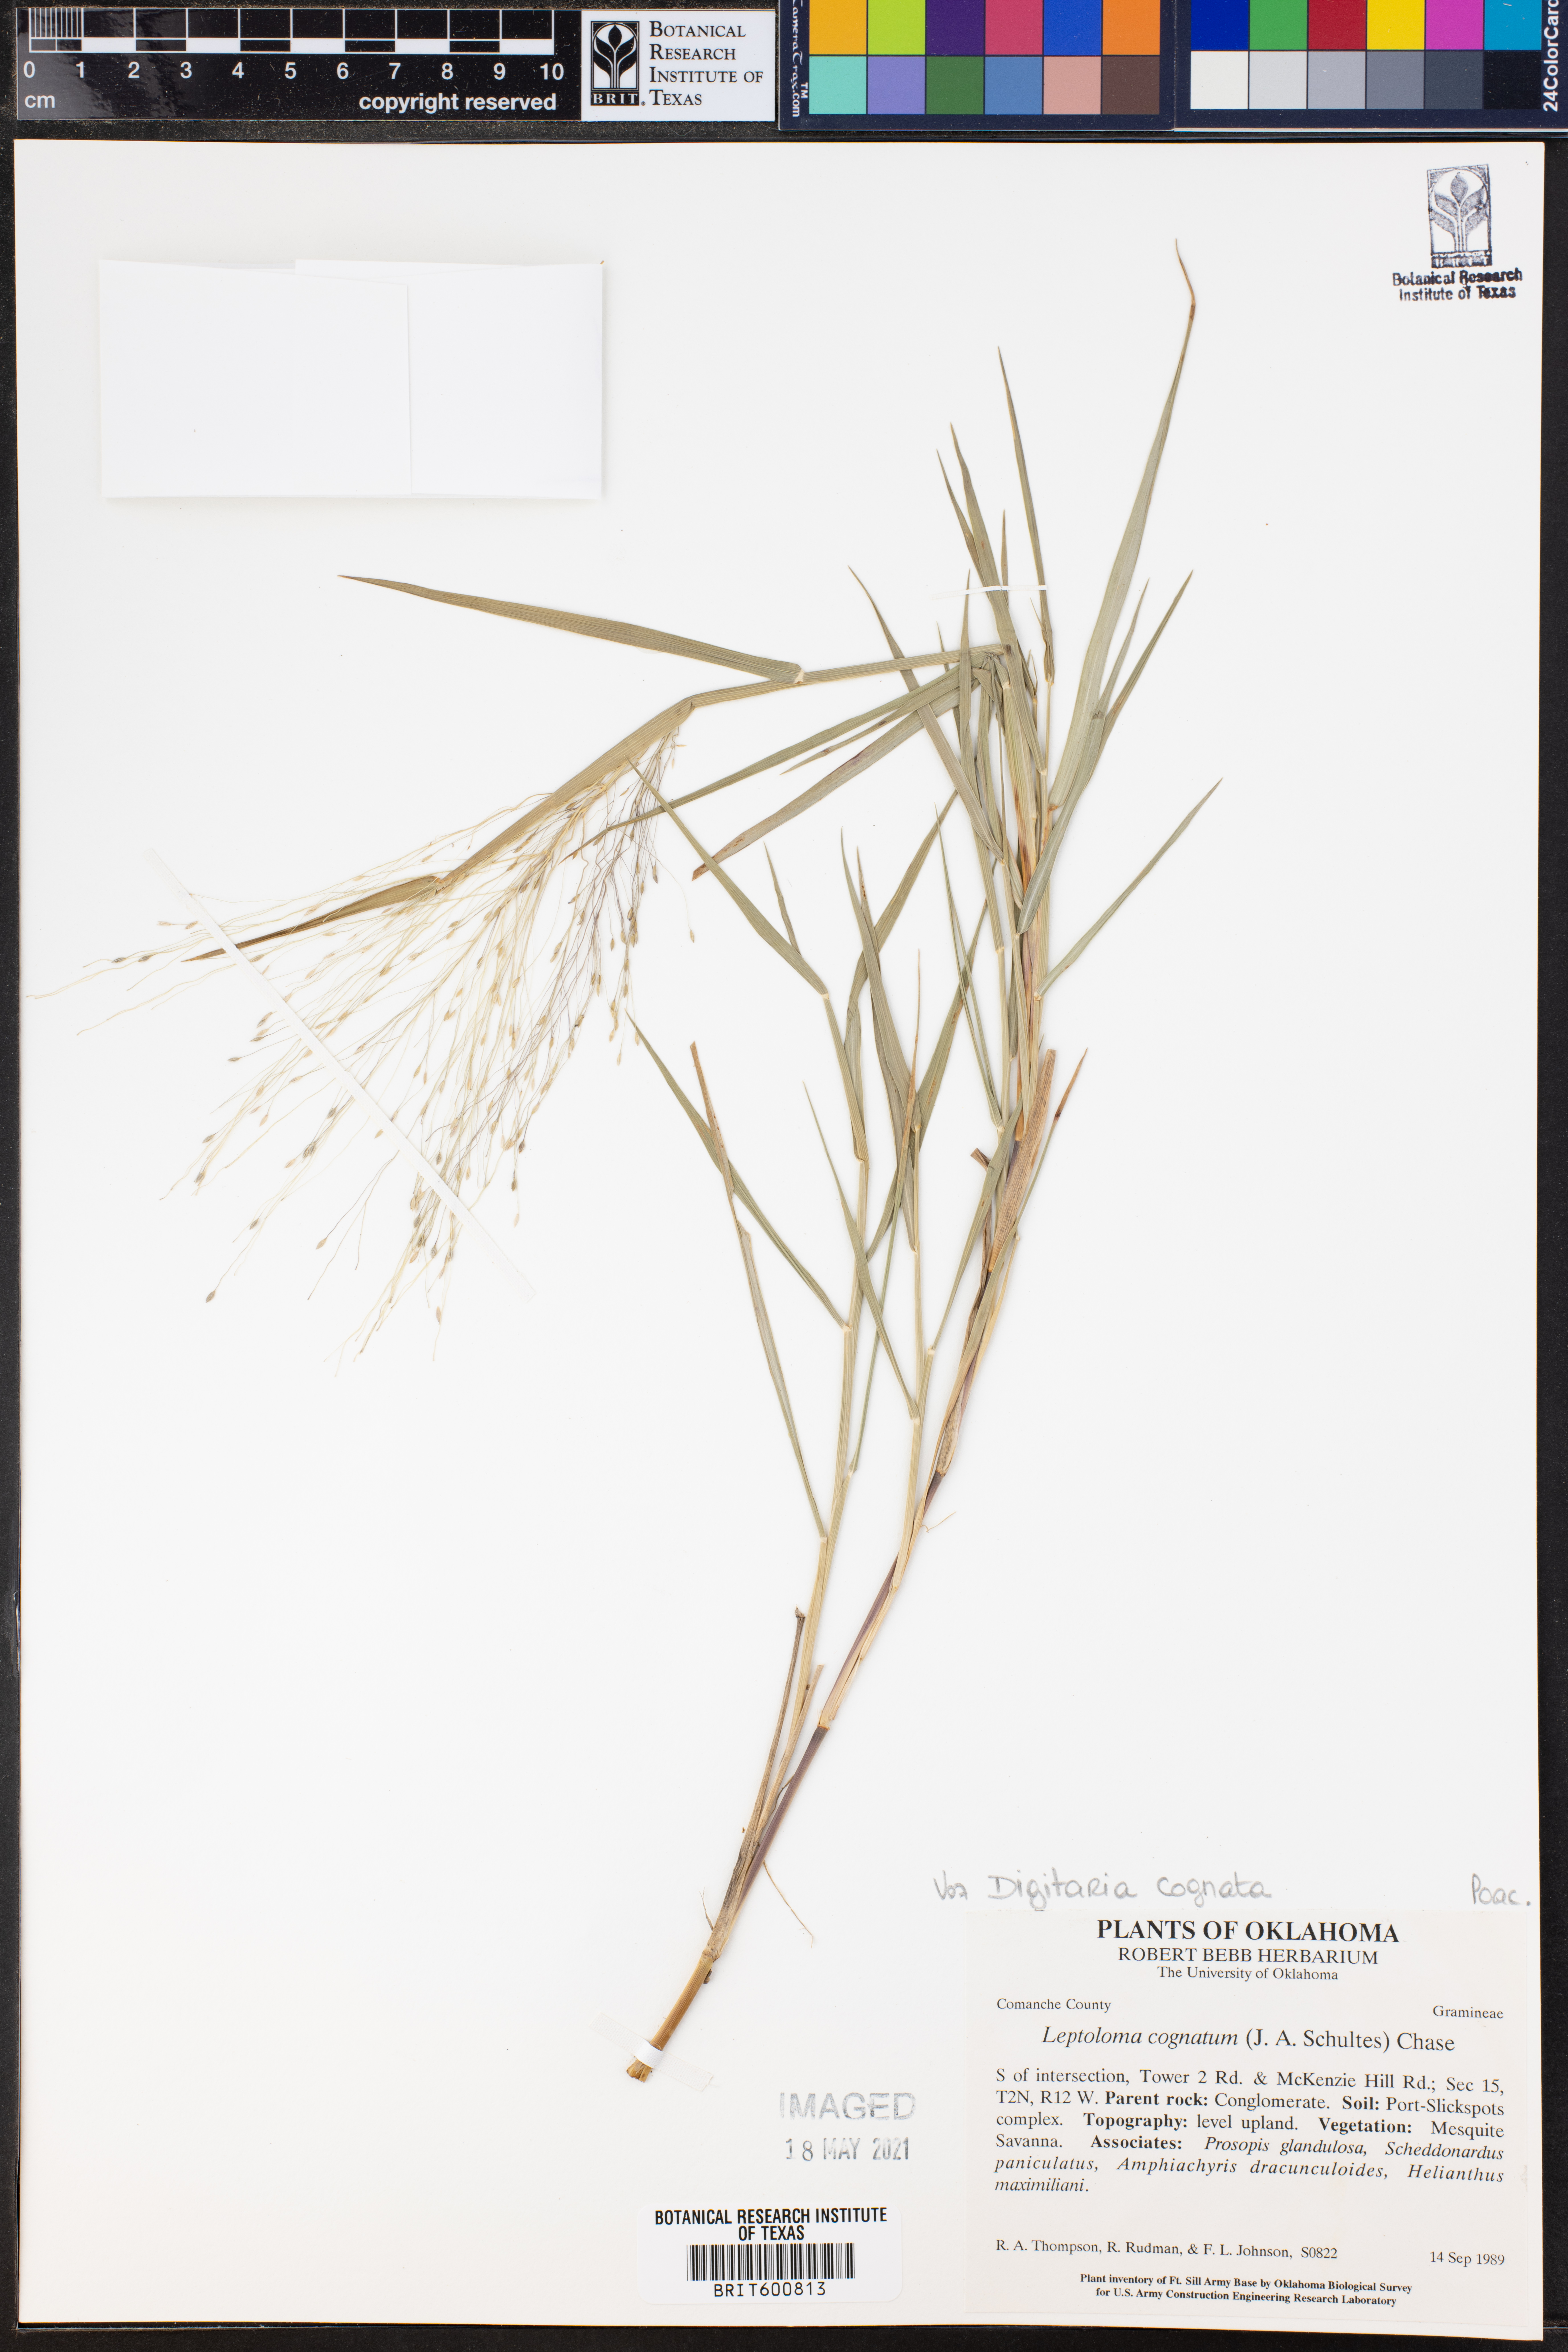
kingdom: Plantae
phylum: Tracheophyta
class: Liliopsida
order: Poales
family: Poaceae
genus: Digitaria
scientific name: Digitaria cognata
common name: Fall witchgrass
